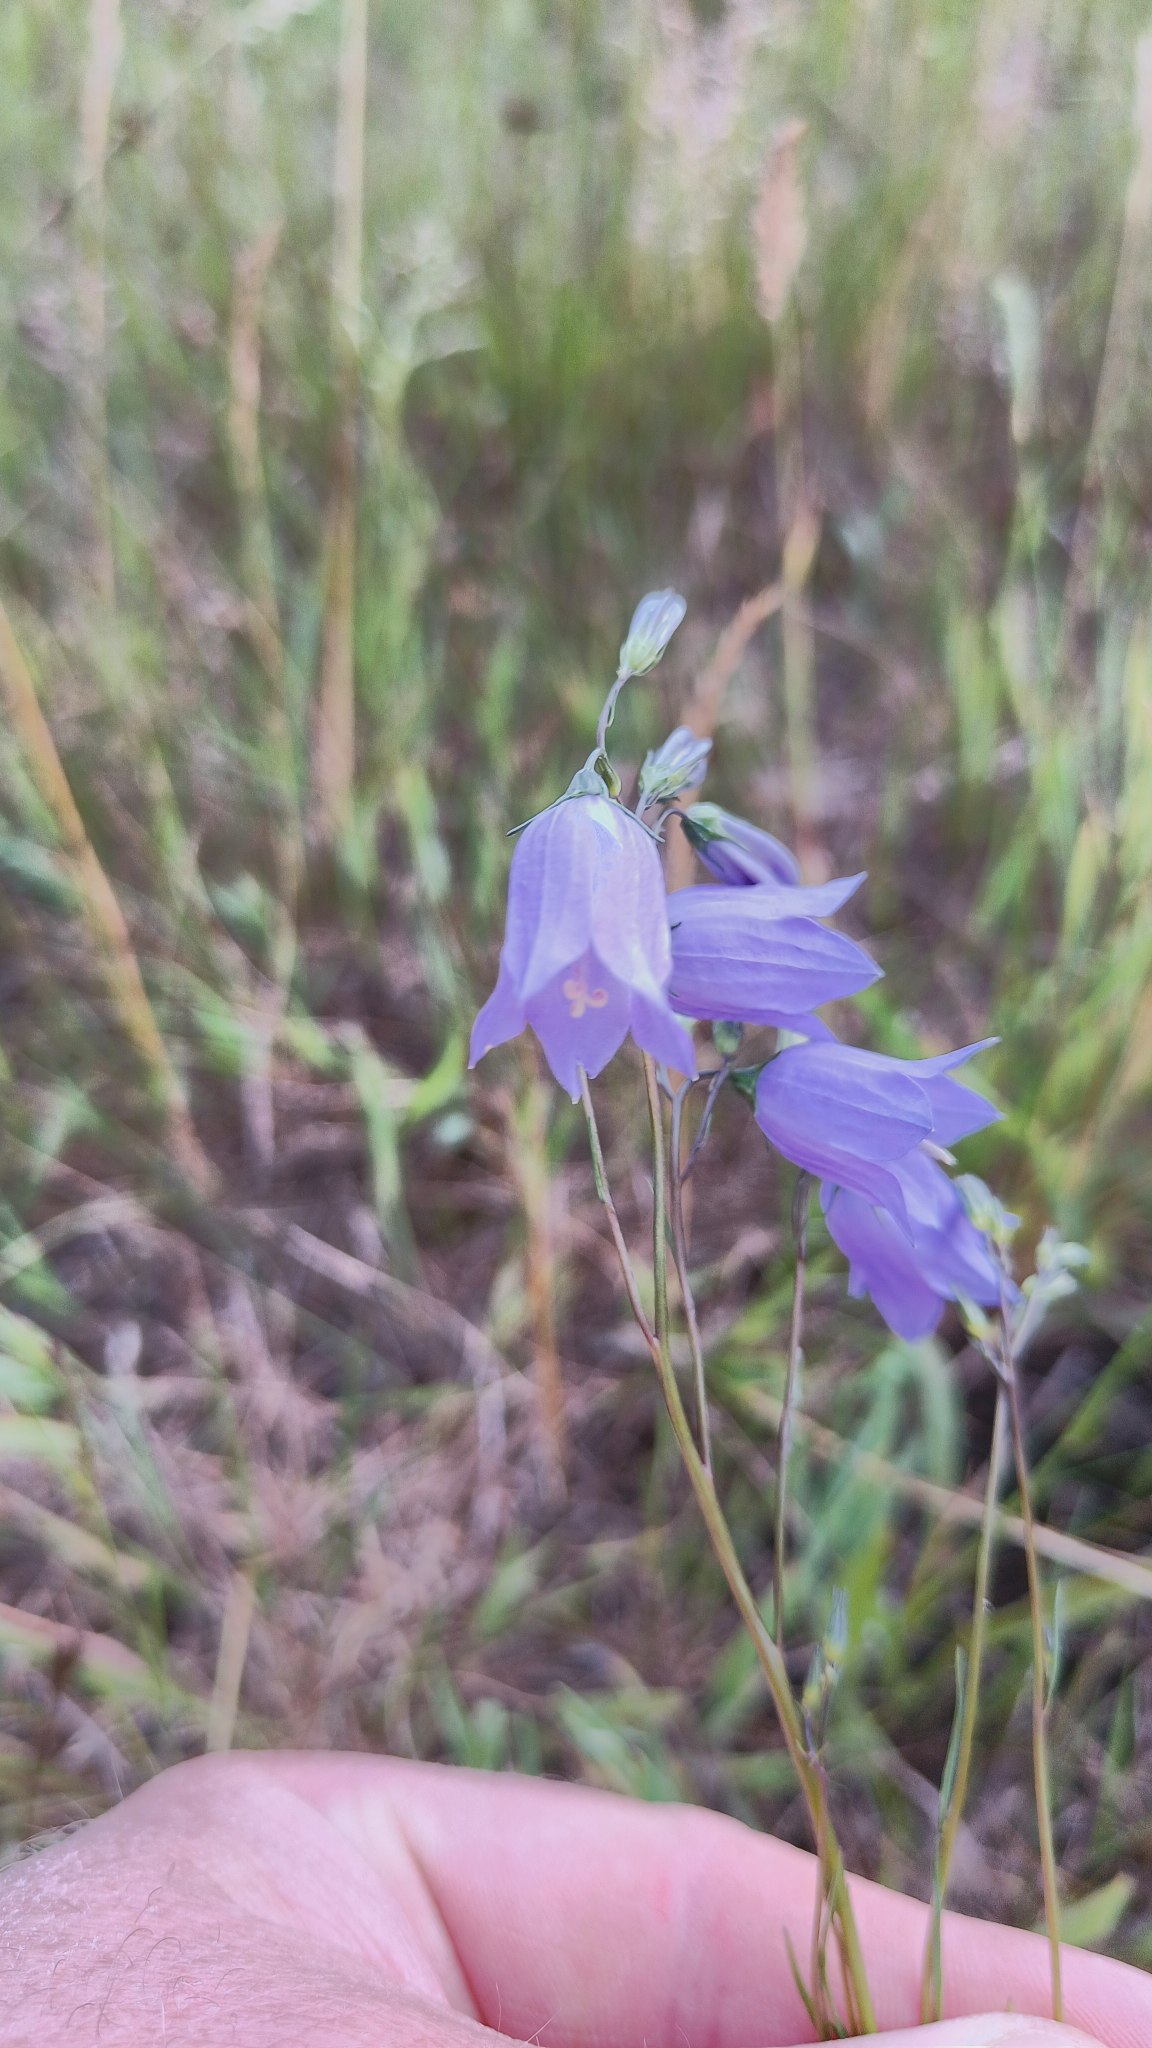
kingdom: Plantae
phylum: Tracheophyta
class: Magnoliopsida
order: Asterales
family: Campanulaceae
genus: Campanula
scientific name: Campanula rotundifolia
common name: Liden klokke
